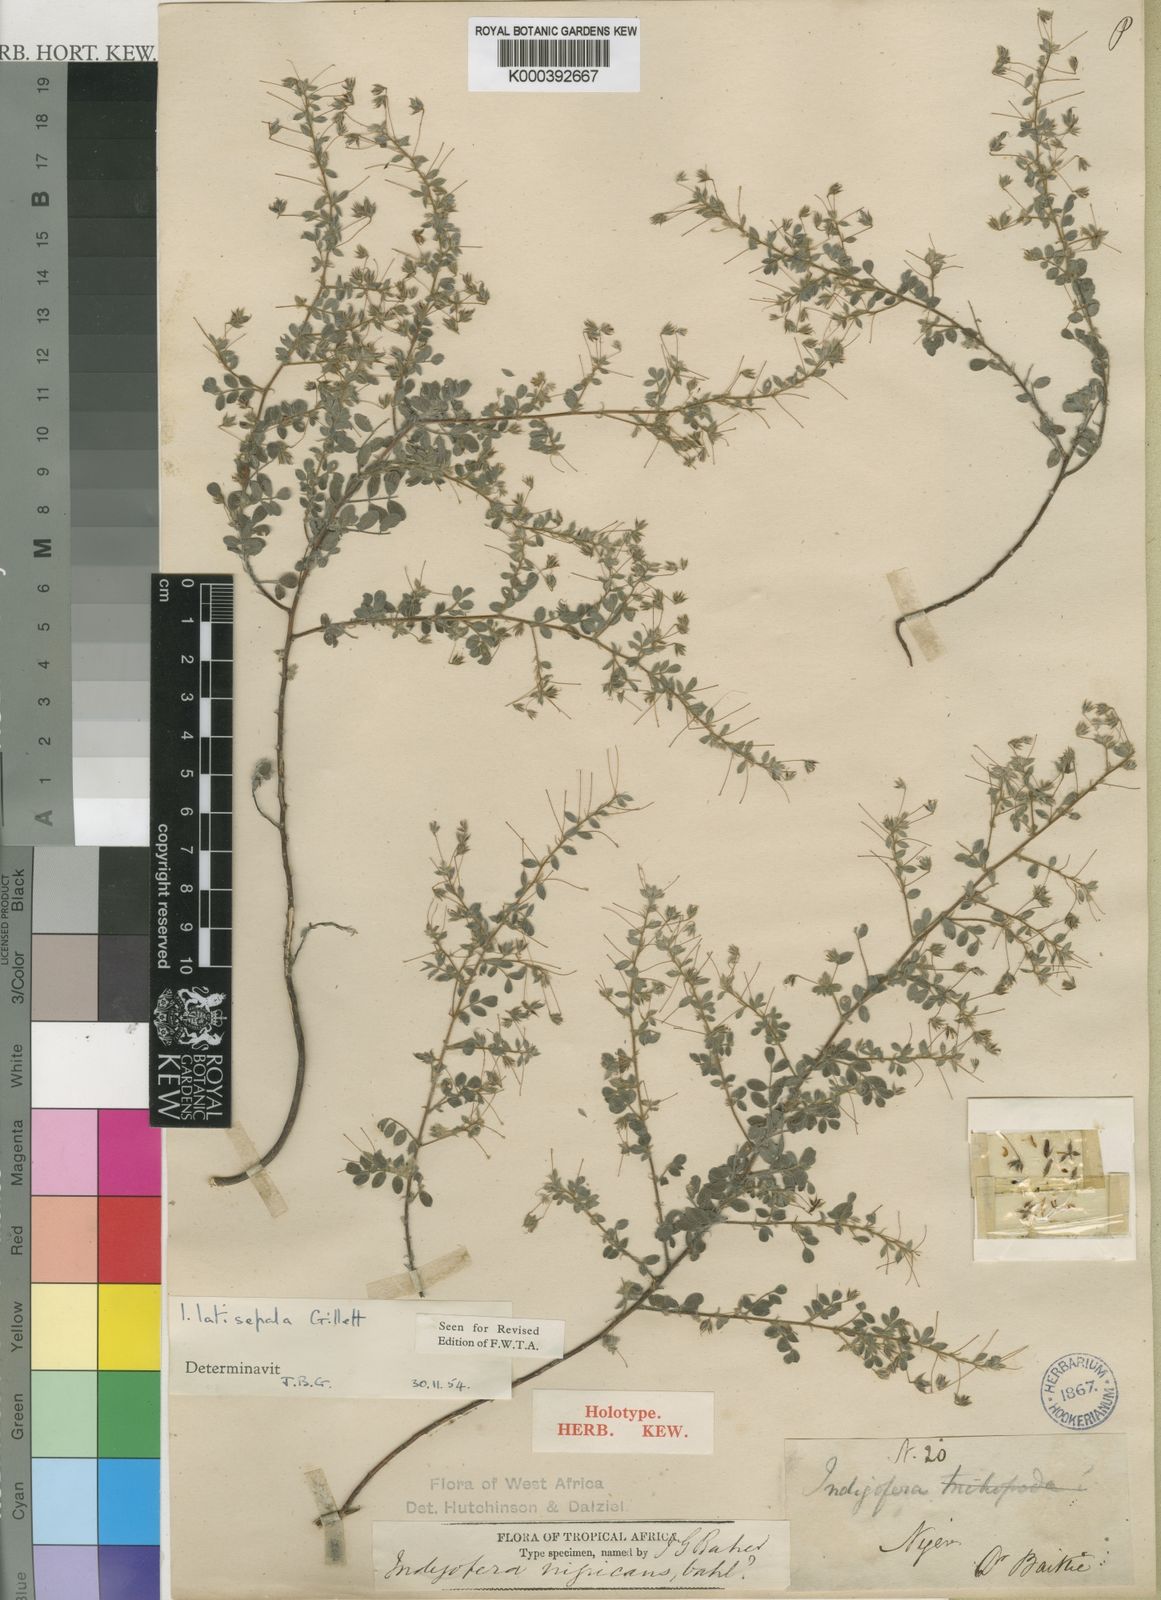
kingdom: Plantae
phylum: Tracheophyta
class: Magnoliopsida
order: Fabales
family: Fabaceae
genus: Indigofera
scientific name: Indigofera latisepala
